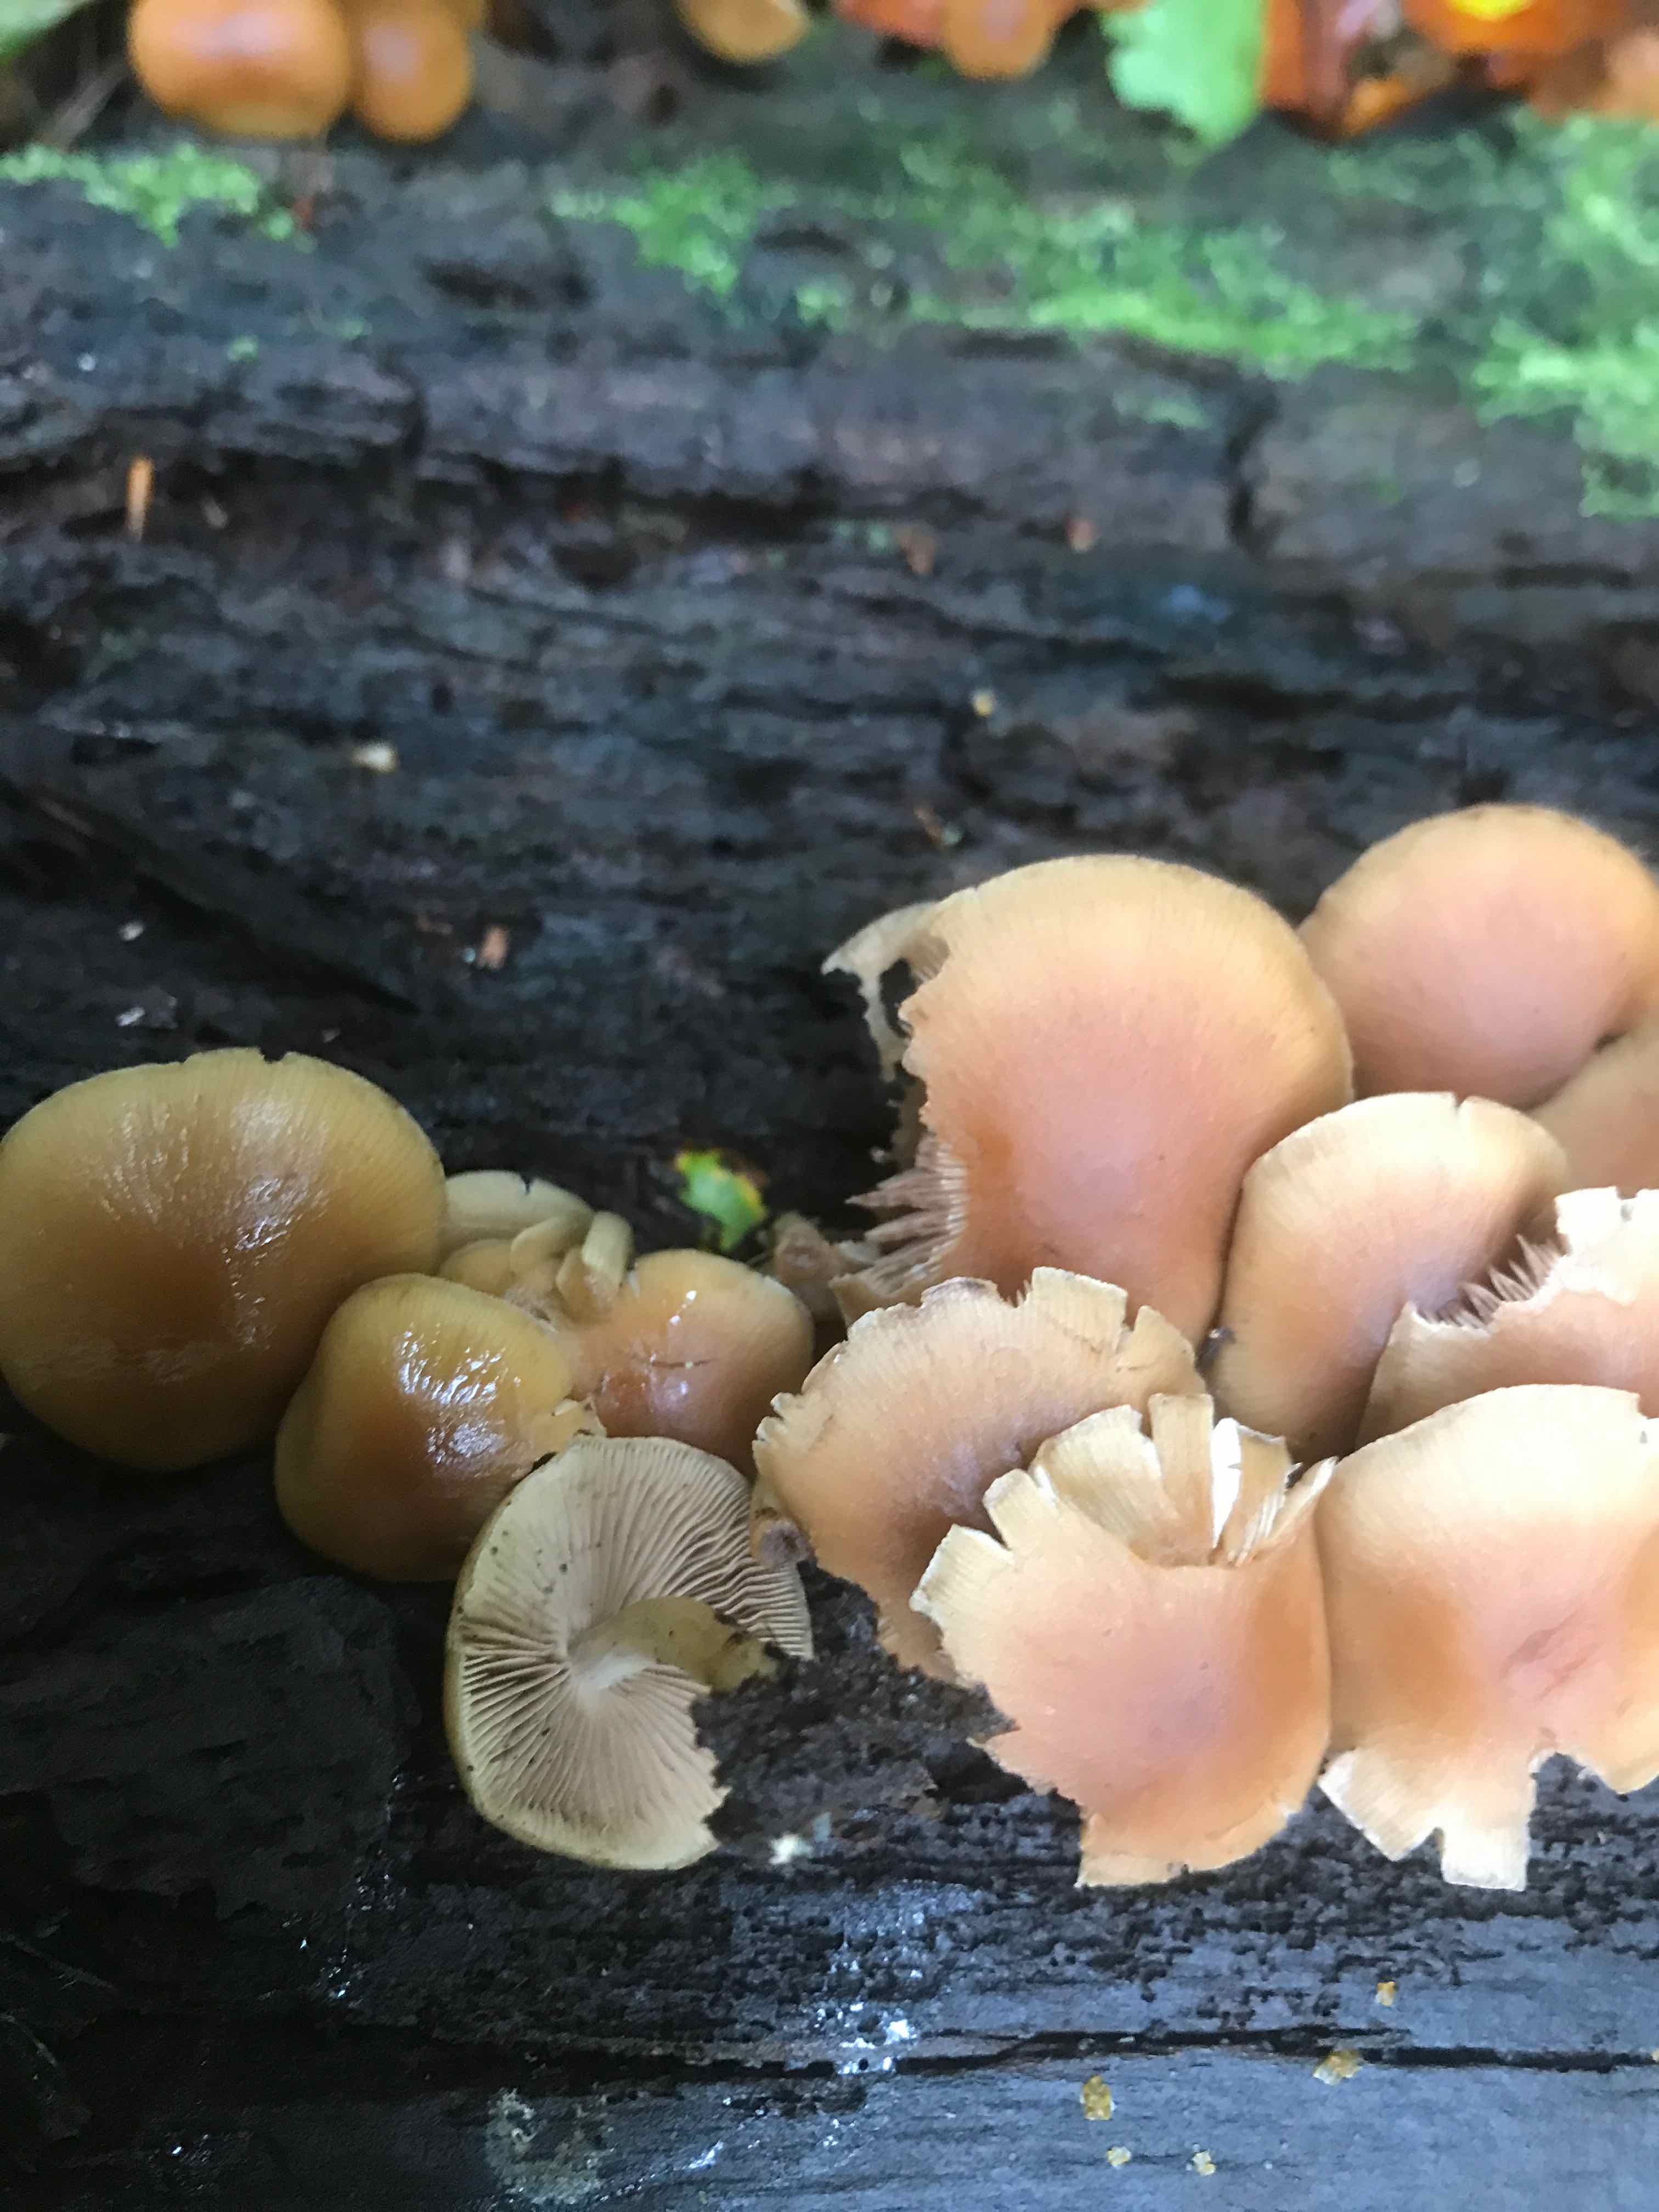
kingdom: Fungi
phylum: Basidiomycota
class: Agaricomycetes
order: Agaricales
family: Psathyrellaceae
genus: Psathyrella
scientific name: Psathyrella piluliformis
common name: lysstokket mørkhat
